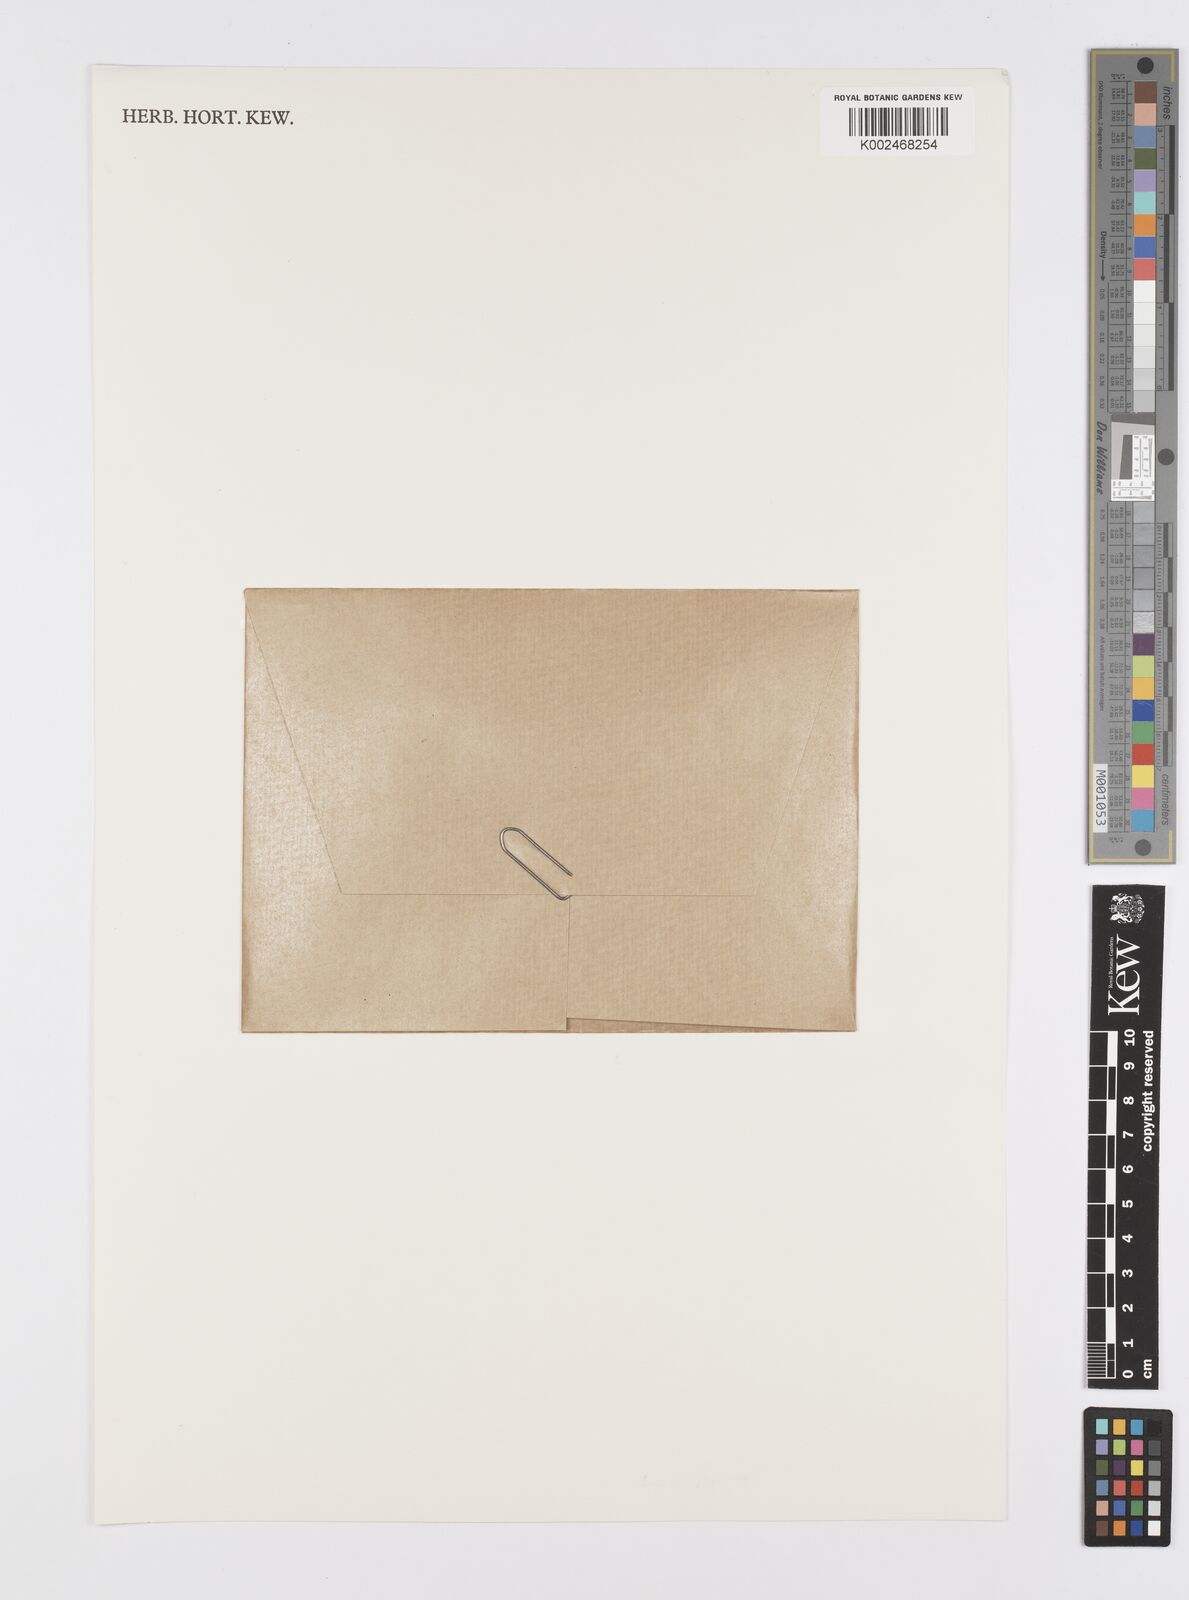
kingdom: Plantae
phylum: Tracheophyta
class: Liliopsida
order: Alismatales
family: Araceae
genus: Lemna
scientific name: Lemna
